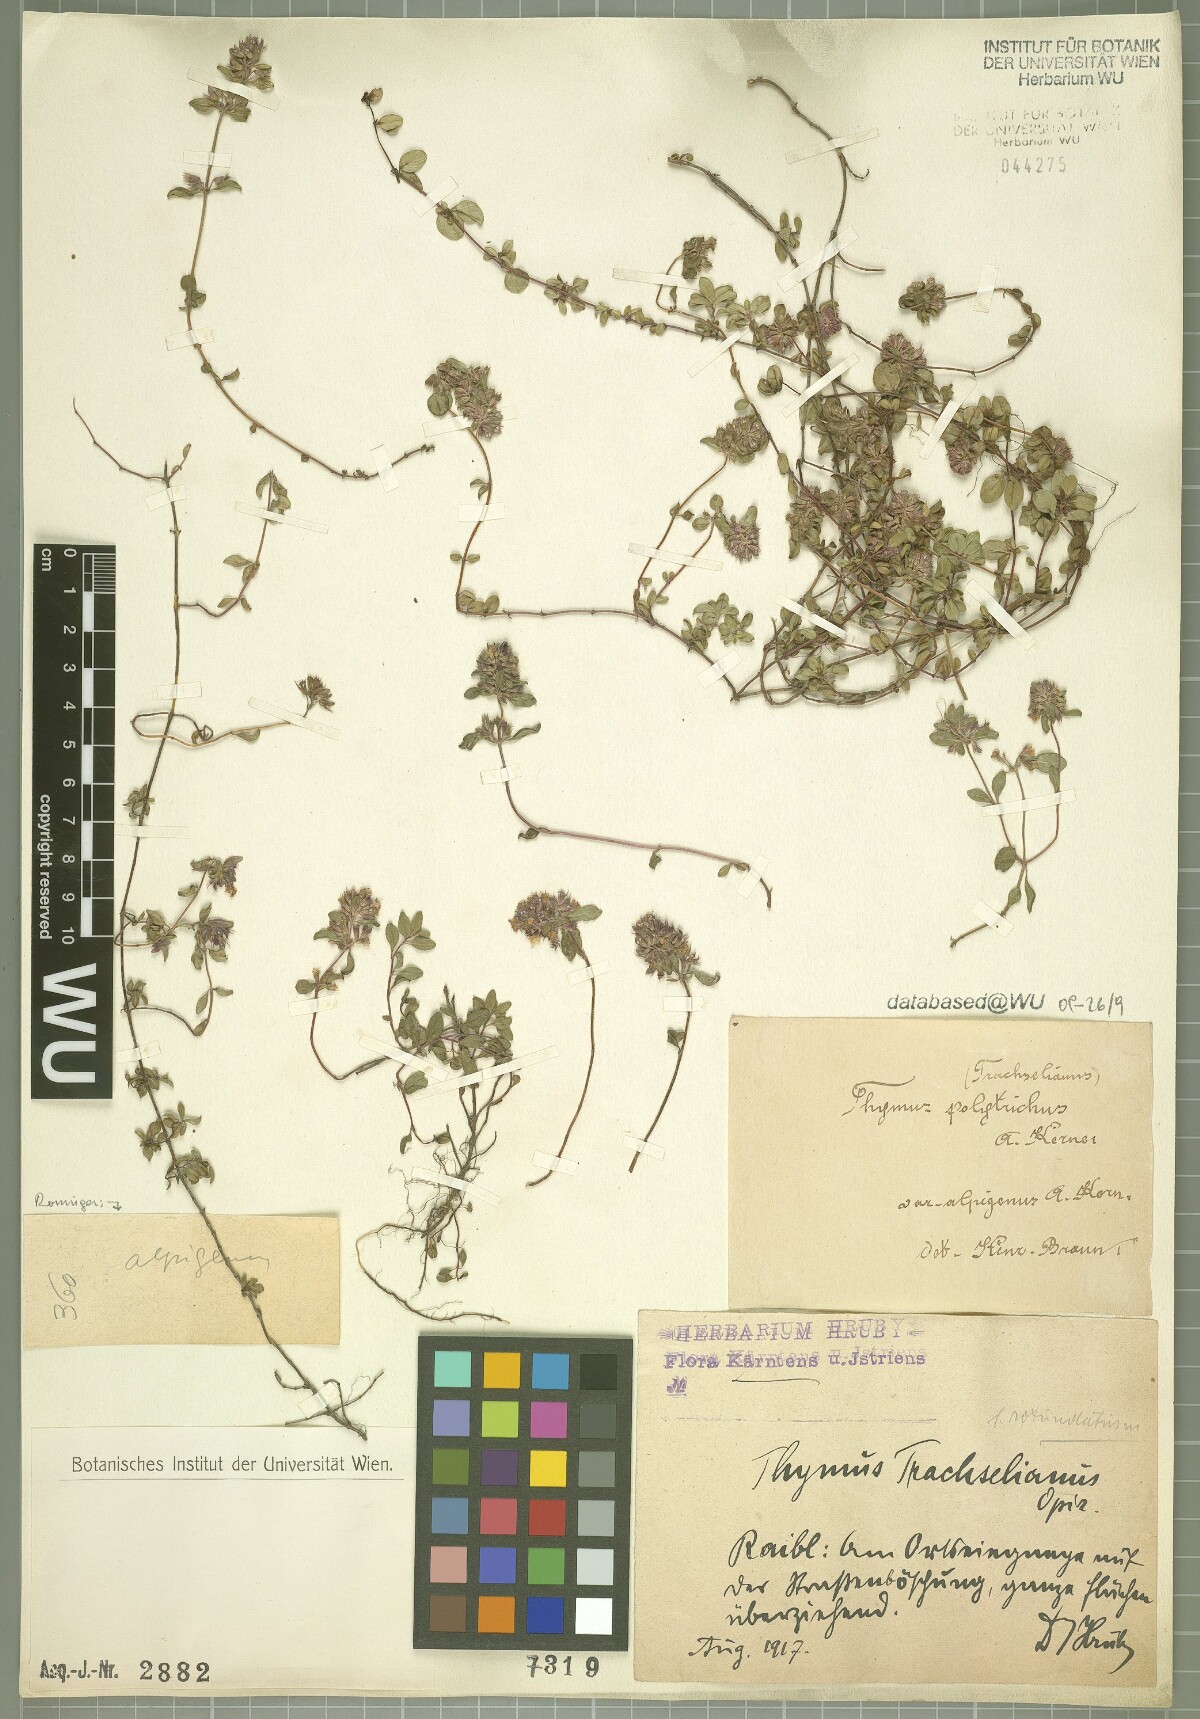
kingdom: Plantae
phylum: Tracheophyta
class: Magnoliopsida
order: Lamiales
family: Lamiaceae
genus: Thymus
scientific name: Thymus praecox
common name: Wild thyme
